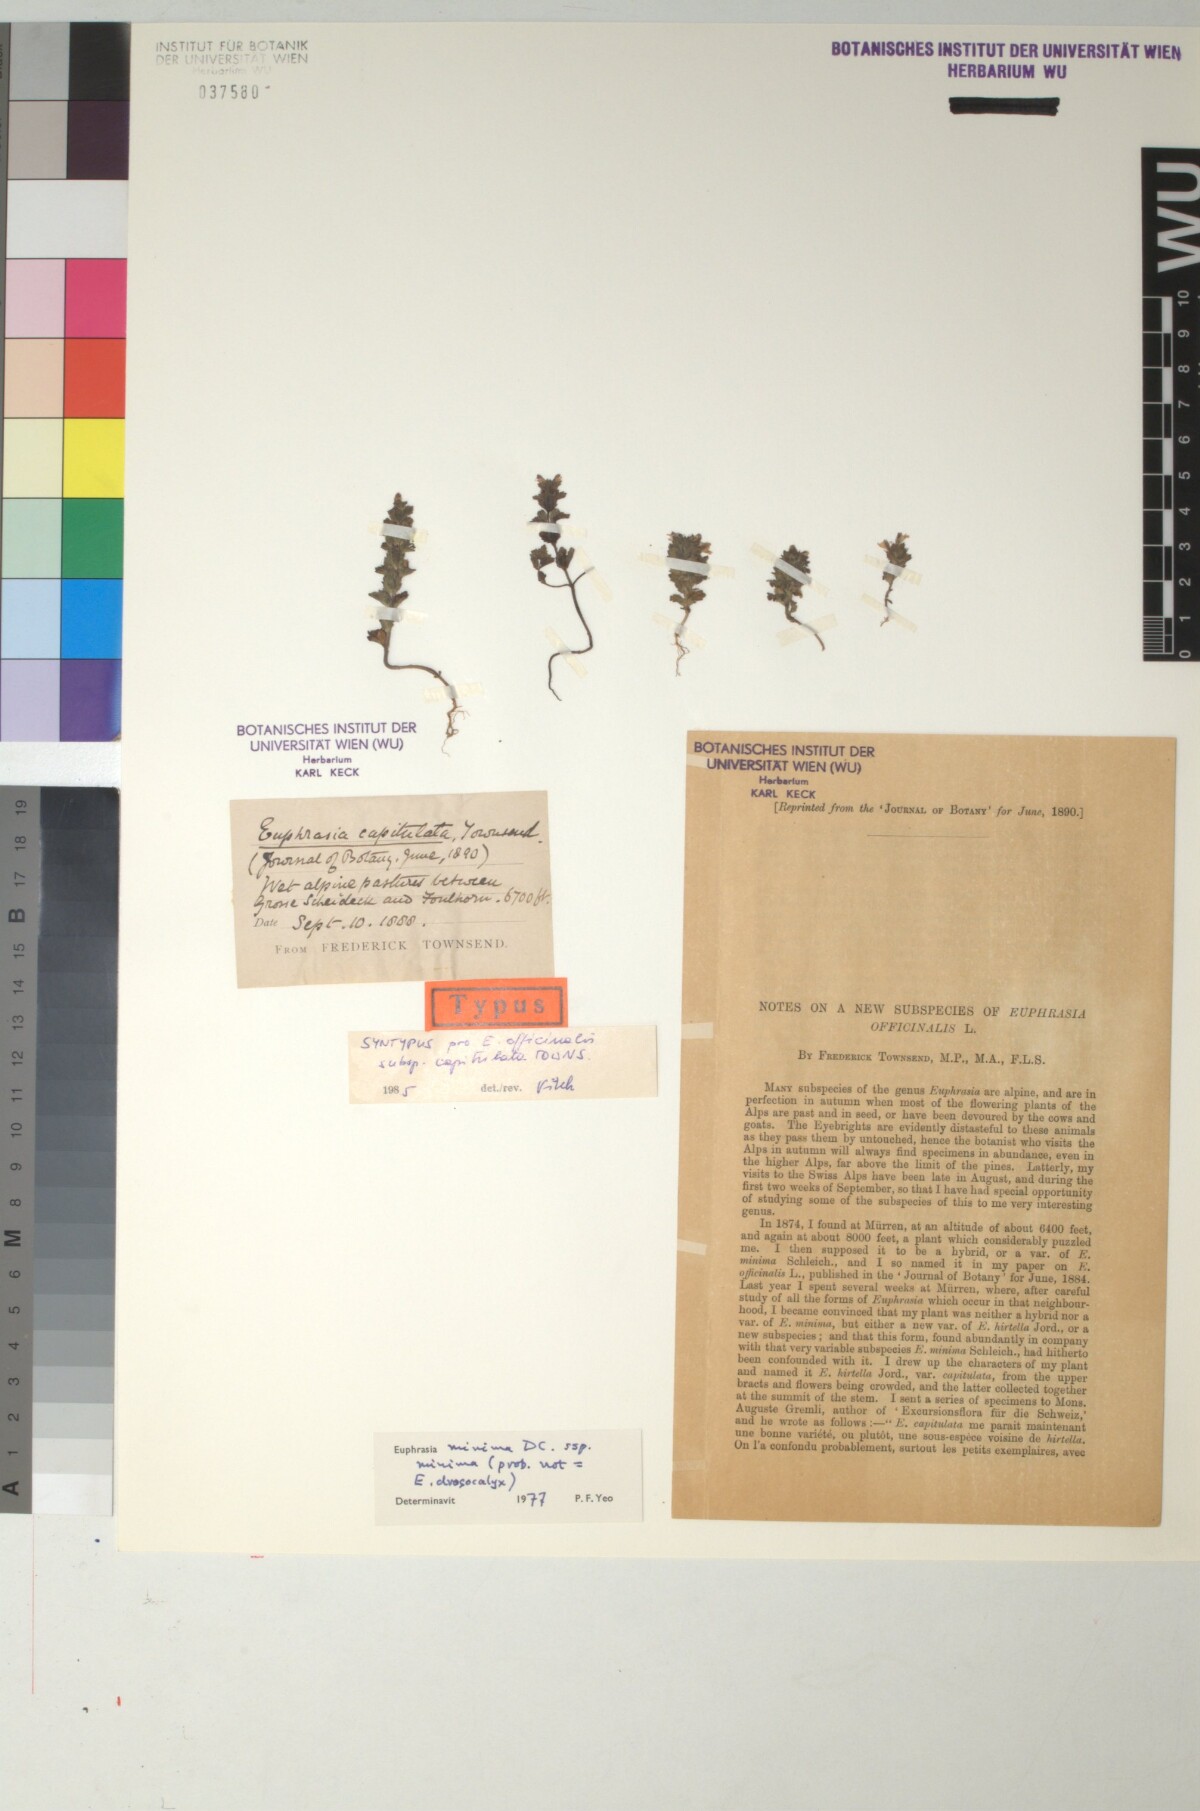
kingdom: Plantae
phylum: Tracheophyta
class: Magnoliopsida
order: Lamiales
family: Orobanchaceae
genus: Euphrasia
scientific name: Euphrasia hirtella
